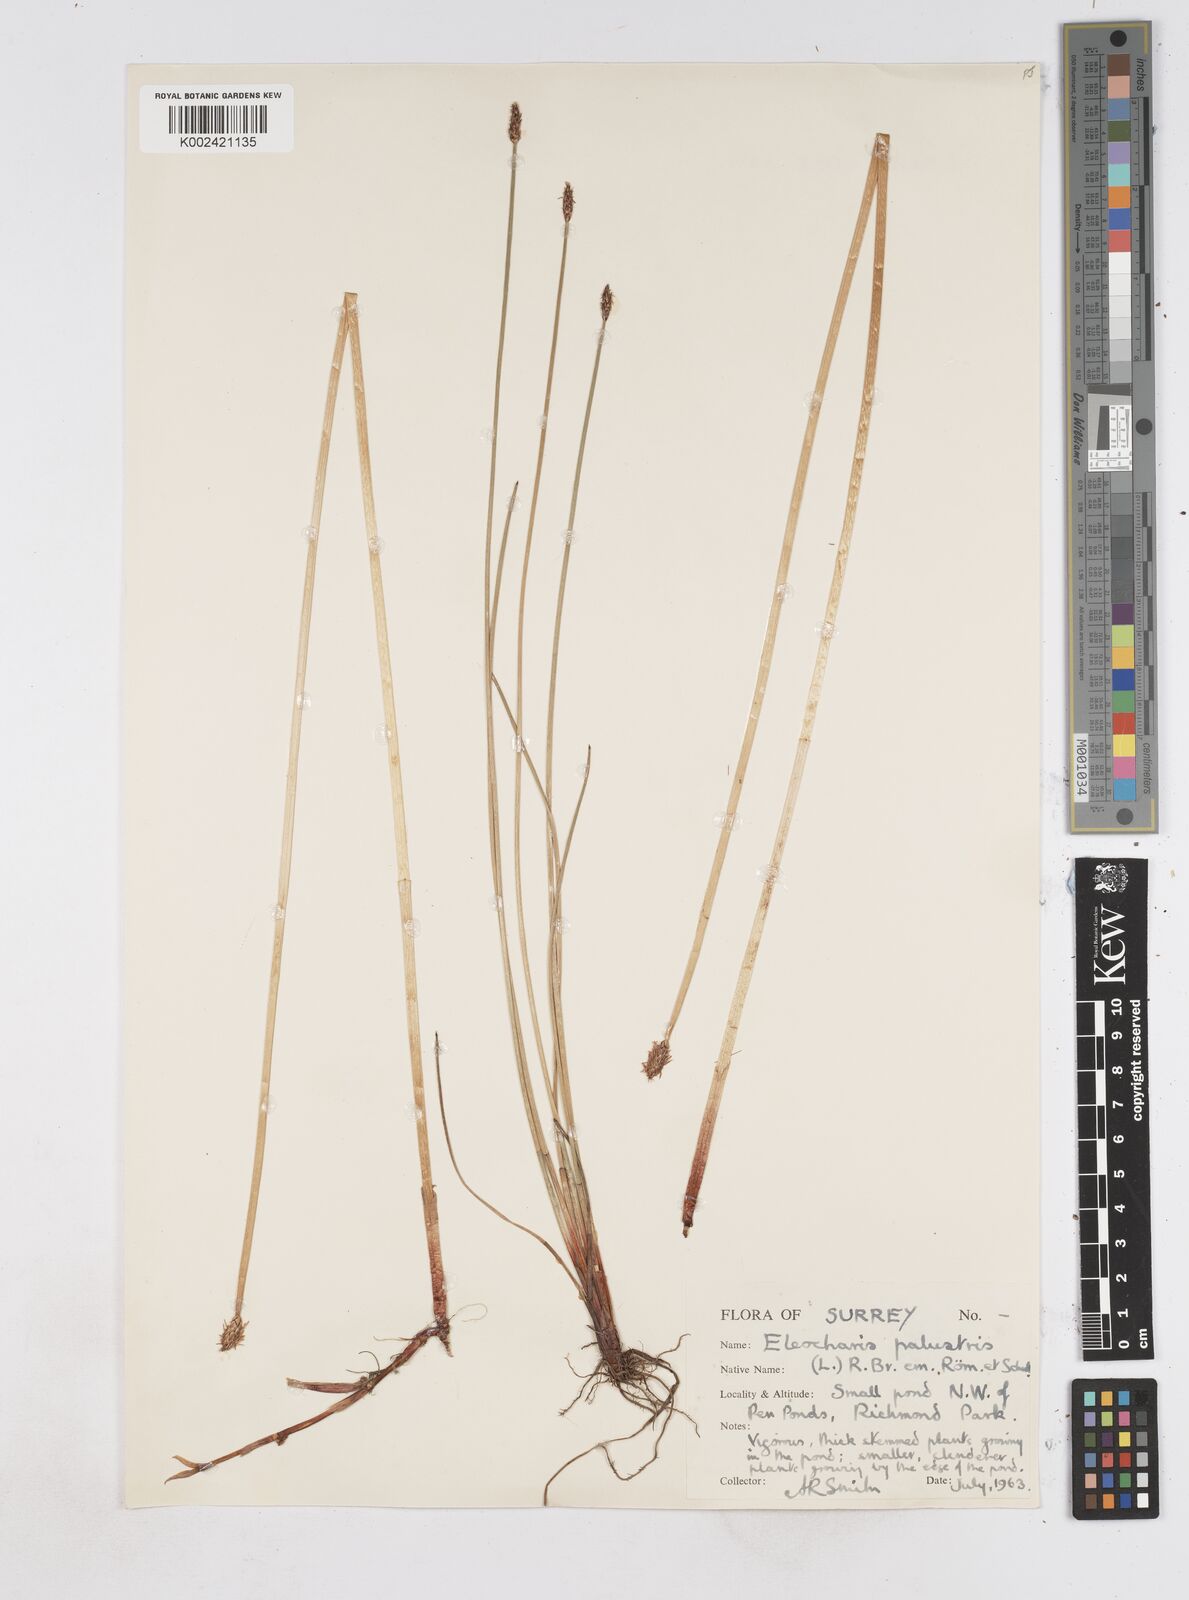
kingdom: Plantae
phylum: Tracheophyta
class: Liliopsida
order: Poales
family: Cyperaceae
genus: Eleocharis
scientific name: Eleocharis palustris
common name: Common spike-rush
